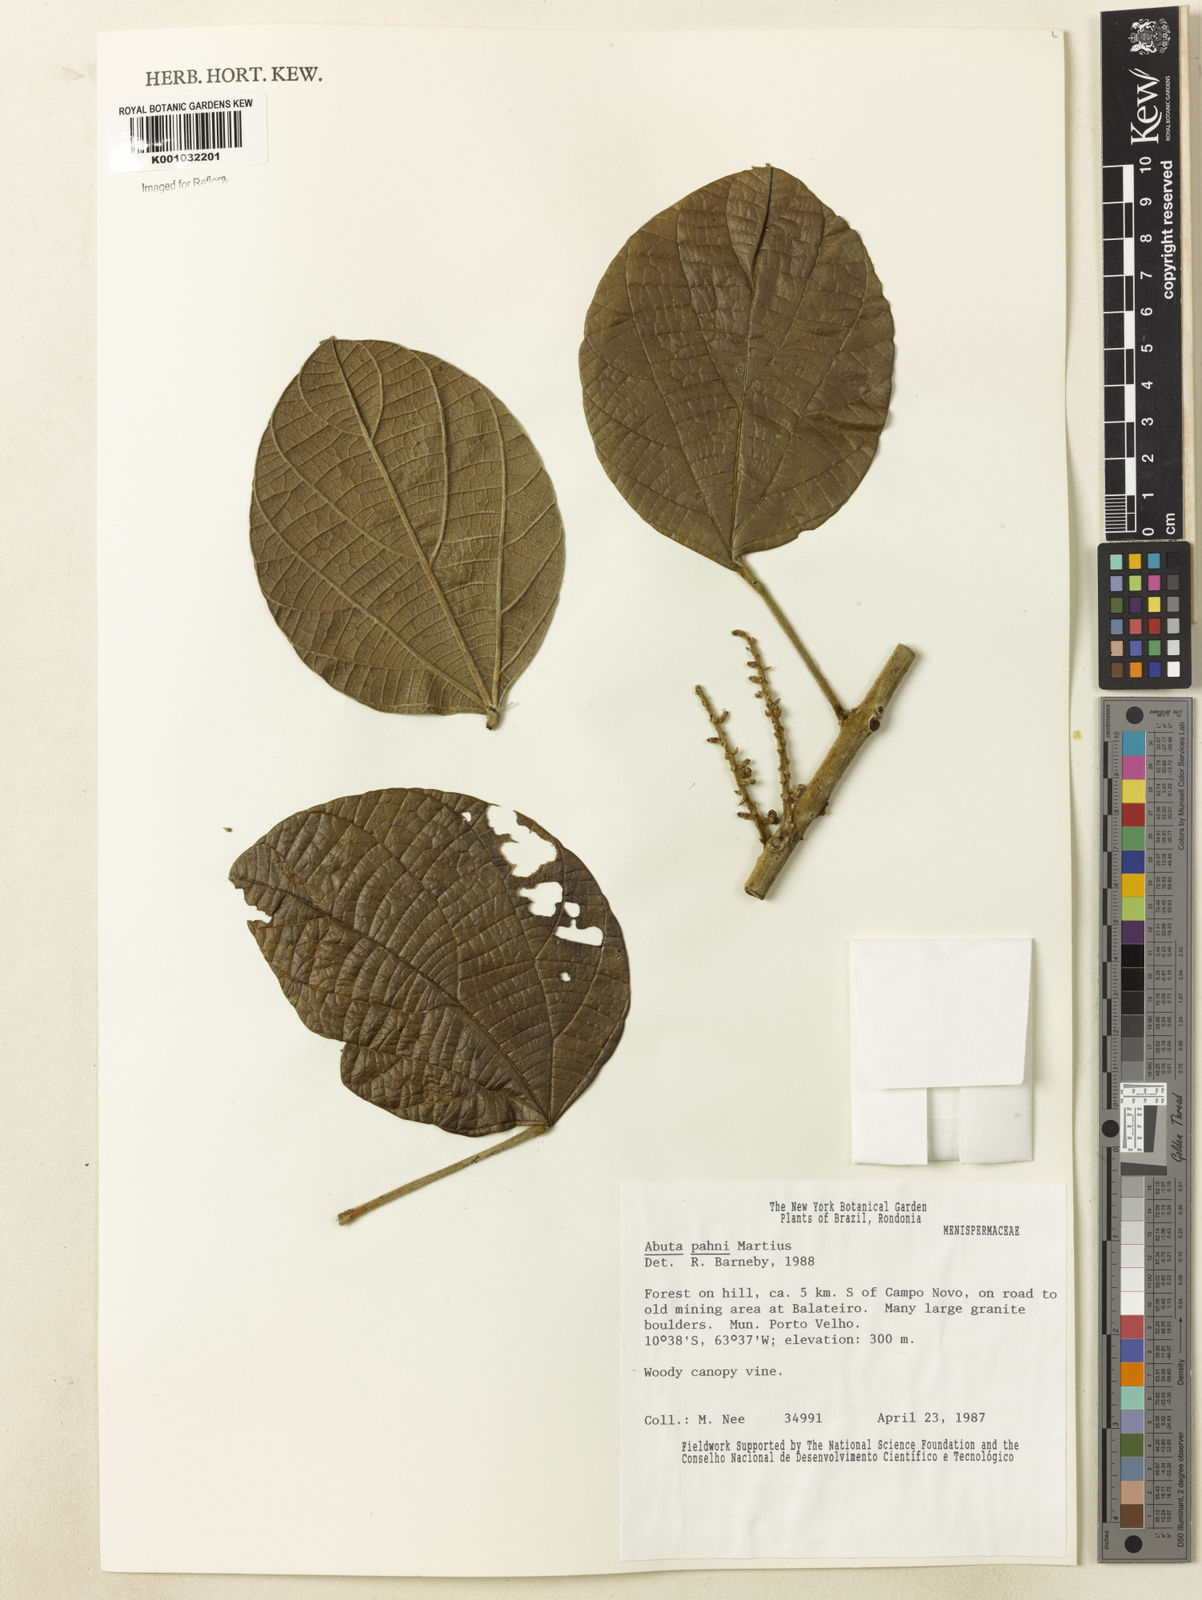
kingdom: Plantae
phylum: Tracheophyta
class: Magnoliopsida
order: Ranunculales
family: Menispermaceae
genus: Abuta
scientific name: Abuta pahni
